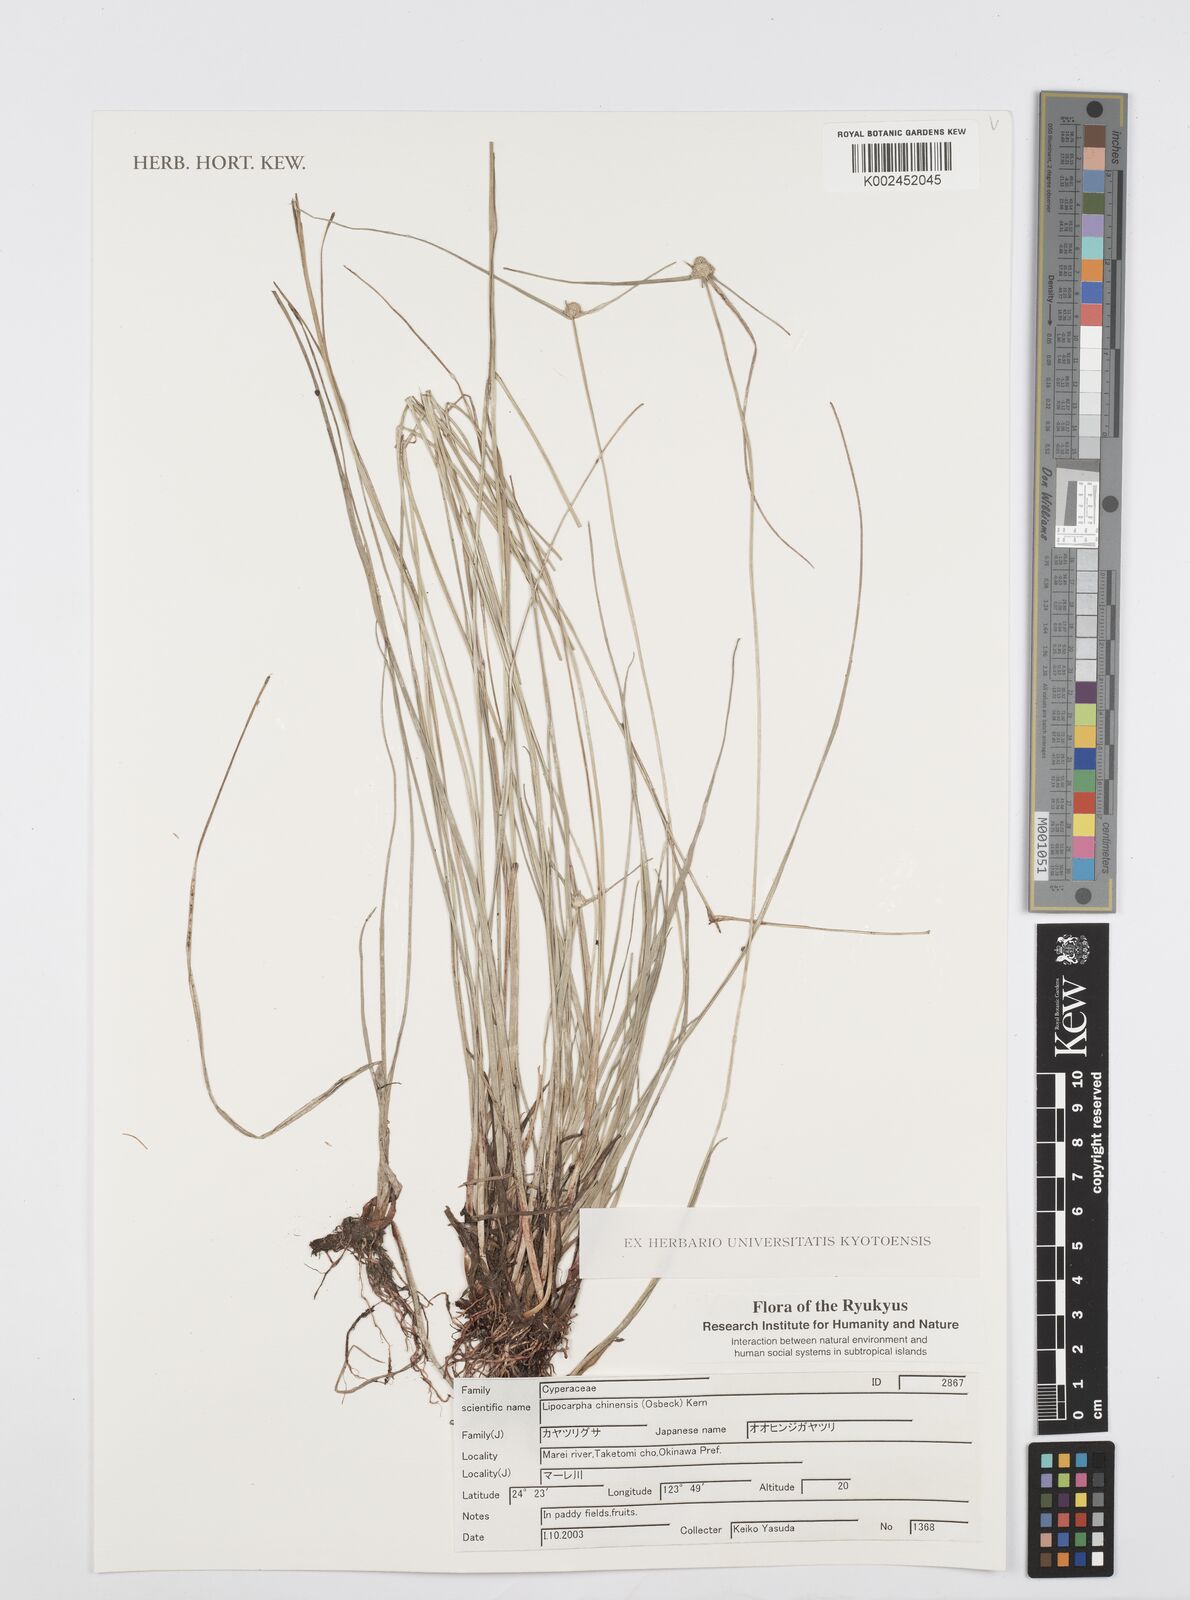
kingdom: Plantae
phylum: Tracheophyta
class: Liliopsida
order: Poales
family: Cyperaceae
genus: Cyperus
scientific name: Cyperus albescens
